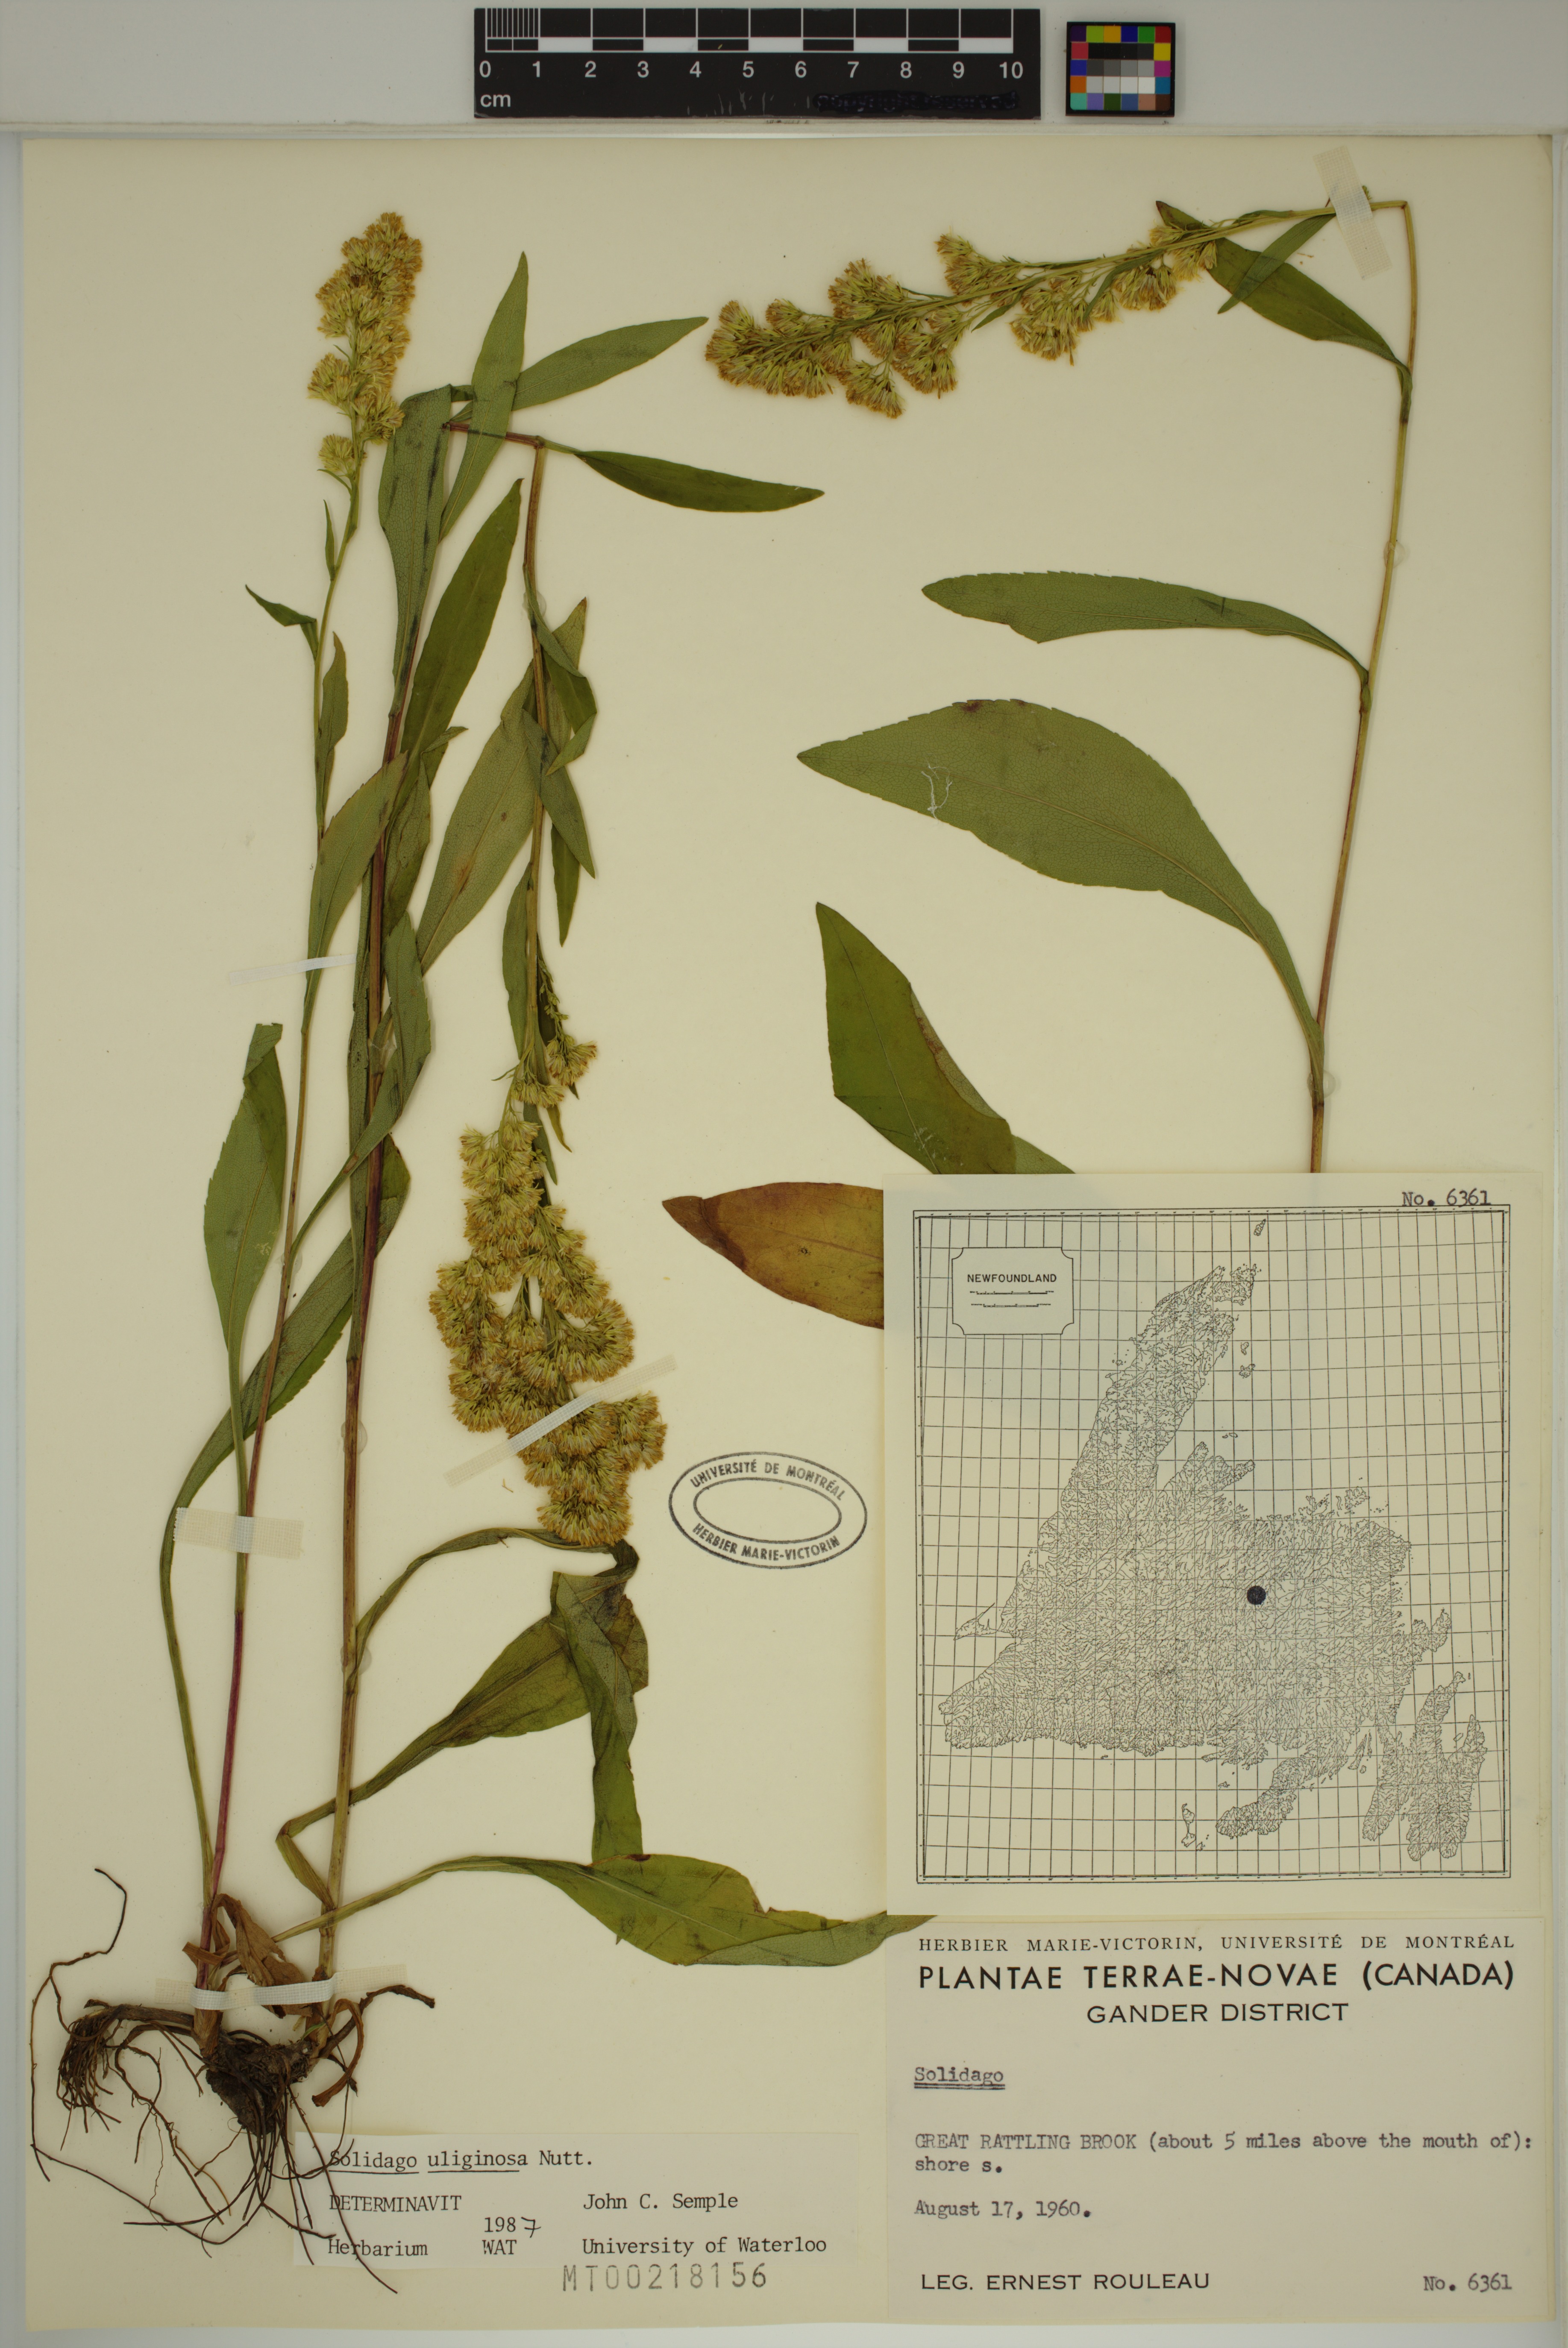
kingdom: Plantae
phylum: Tracheophyta
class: Magnoliopsida
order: Asterales
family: Asteraceae
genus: Solidago
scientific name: Solidago uliginosa
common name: Bog goldenrod
